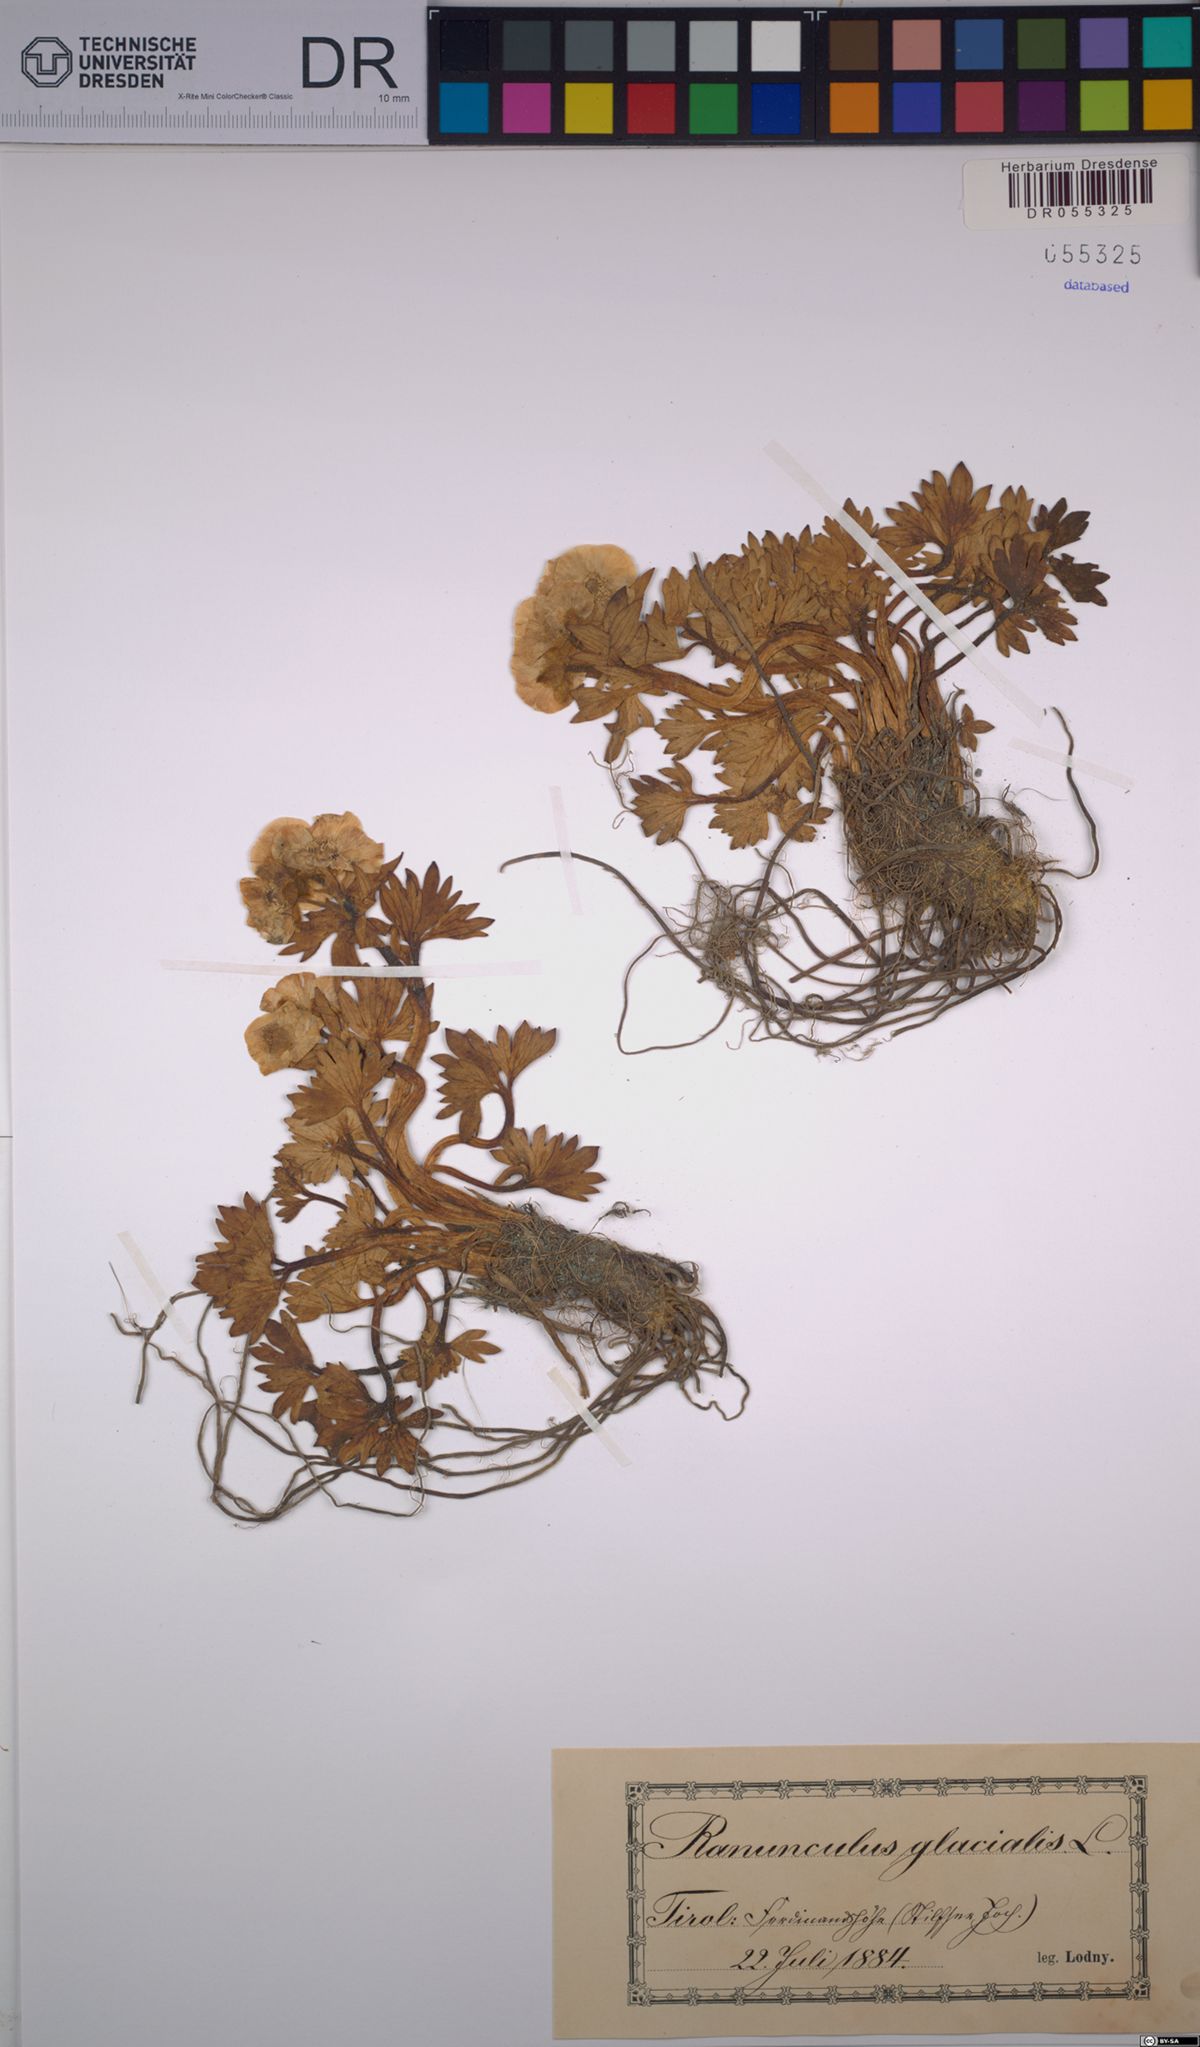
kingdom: Plantae
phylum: Tracheophyta
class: Magnoliopsida
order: Ranunculales
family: Ranunculaceae
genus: Ranunculus
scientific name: Ranunculus glacialis
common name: Glacier buttercup
